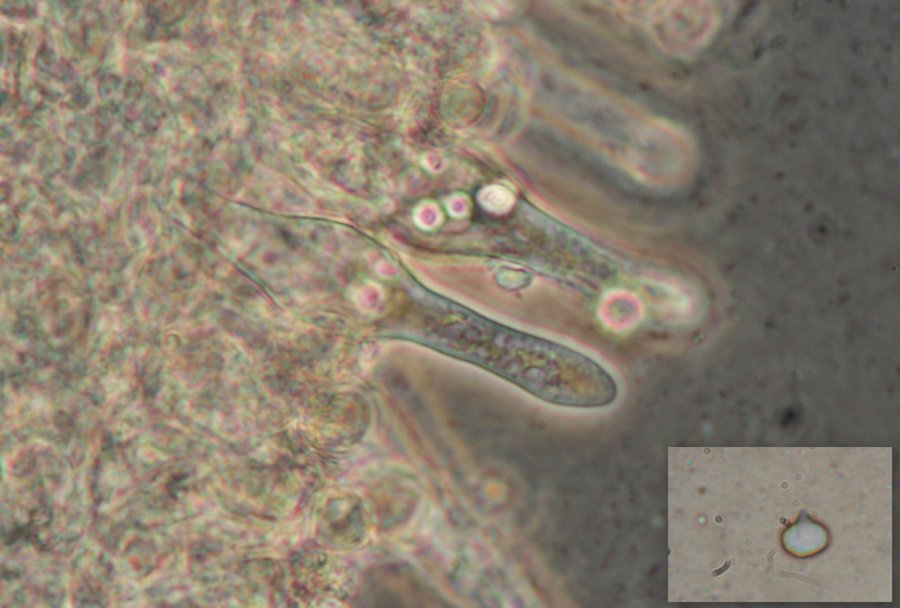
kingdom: Fungi
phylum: Basidiomycota
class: Agaricomycetes
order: Agaricales
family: Tricholomataceae
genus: Mycenella
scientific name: Mycenella salicina
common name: glatsporet dughat
